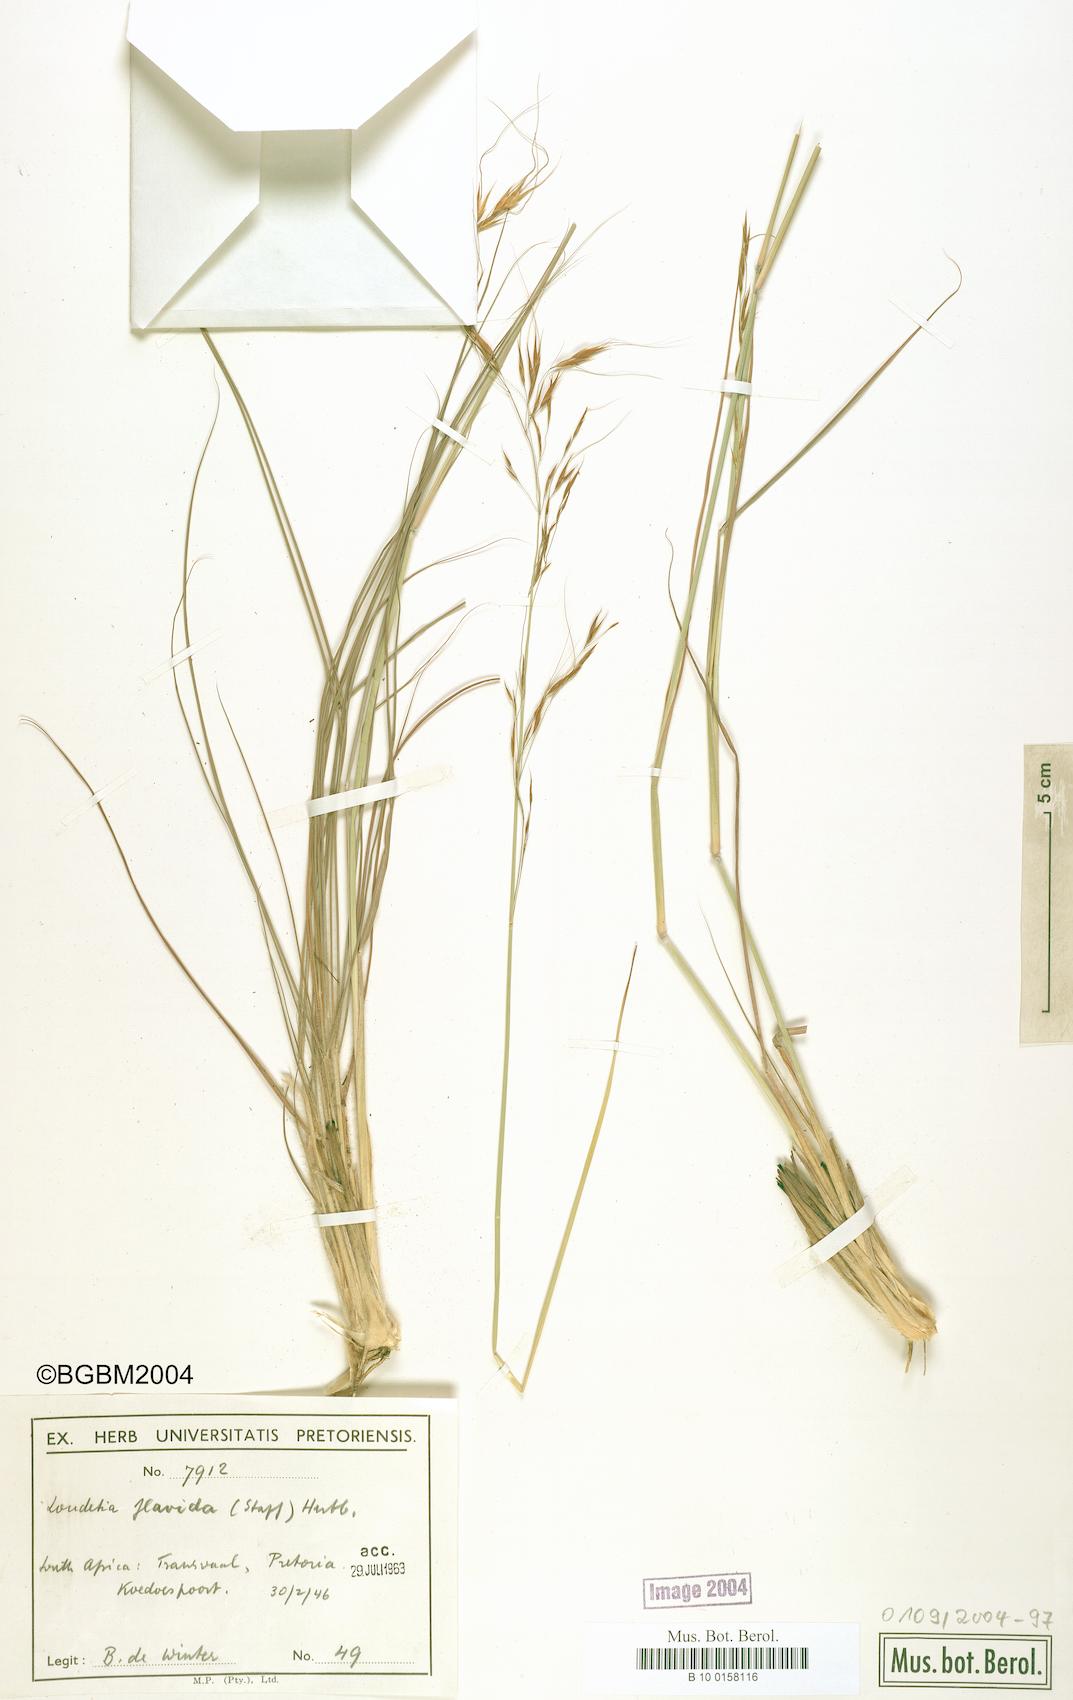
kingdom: Plantae
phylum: Tracheophyta
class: Liliopsida
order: Poales
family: Poaceae
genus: Loudetia
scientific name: Loudetia flavida
